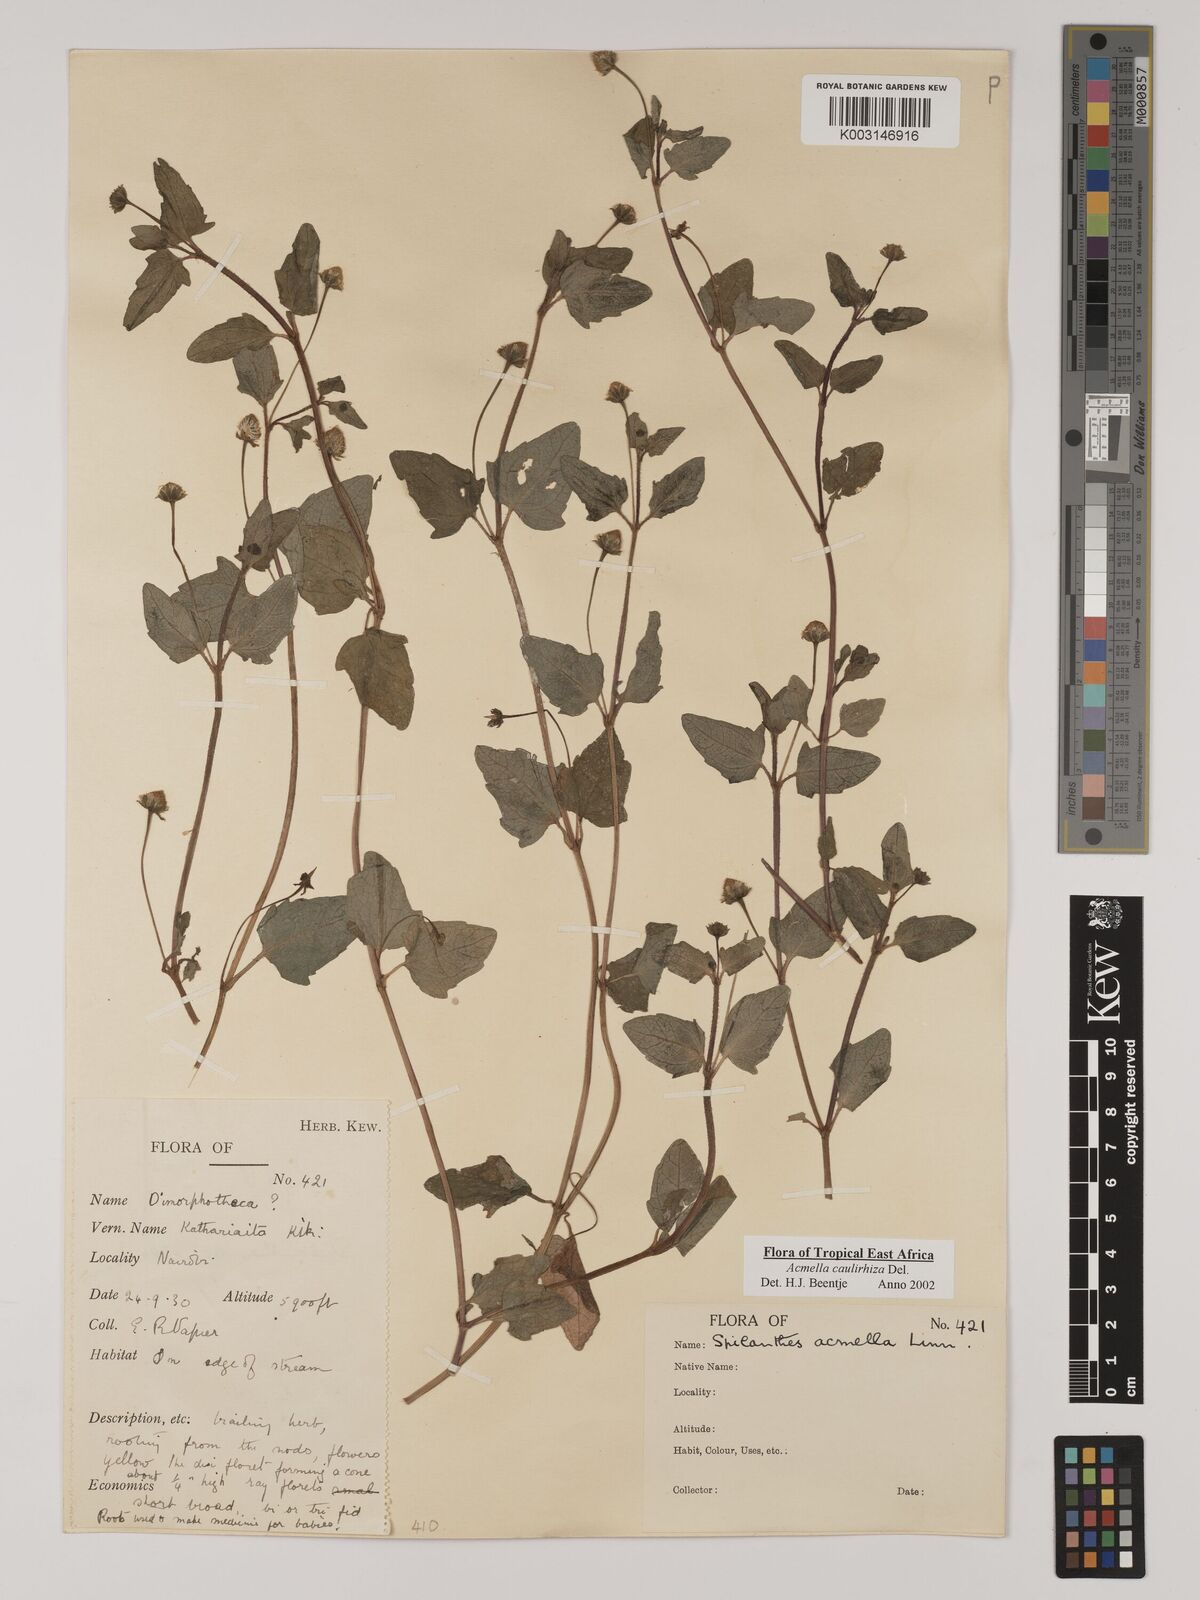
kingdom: Plantae
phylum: Tracheophyta
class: Magnoliopsida
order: Asterales
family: Asteraceae
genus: Acmella
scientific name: Acmella caulirhiza
